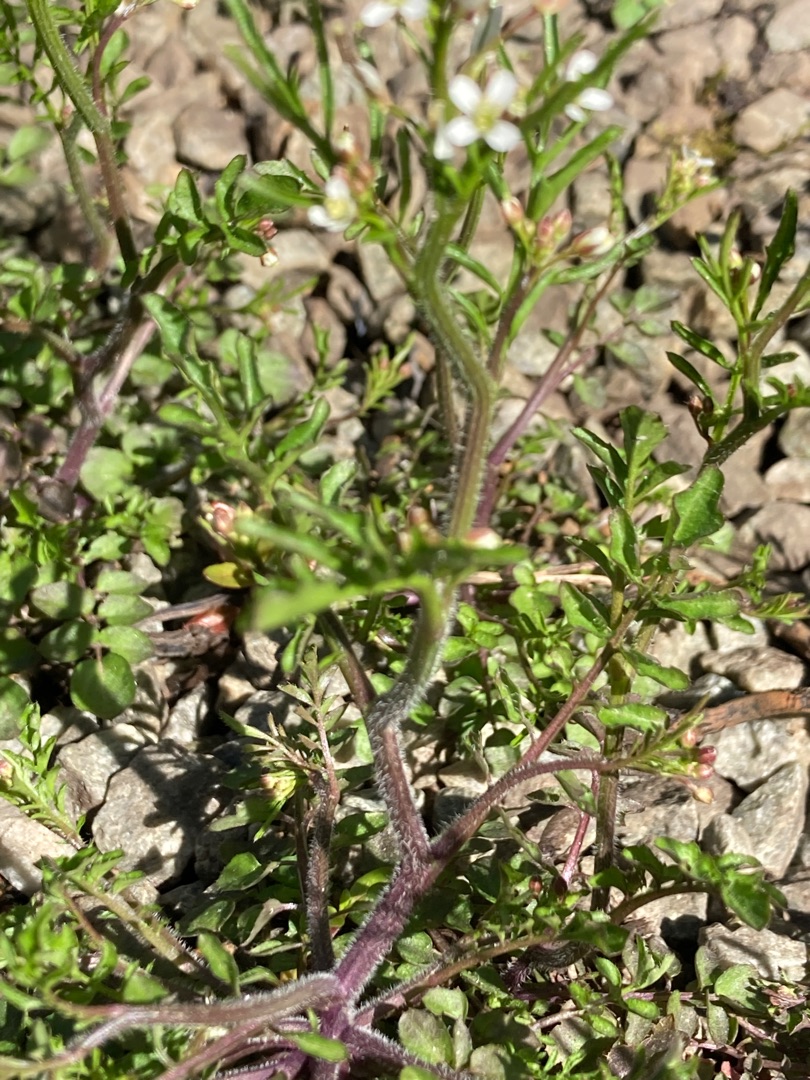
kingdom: Plantae
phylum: Tracheophyta
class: Magnoliopsida
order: Brassicales
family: Brassicaceae
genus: Cardamine
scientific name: Cardamine flexuosa
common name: Skov-springklap
